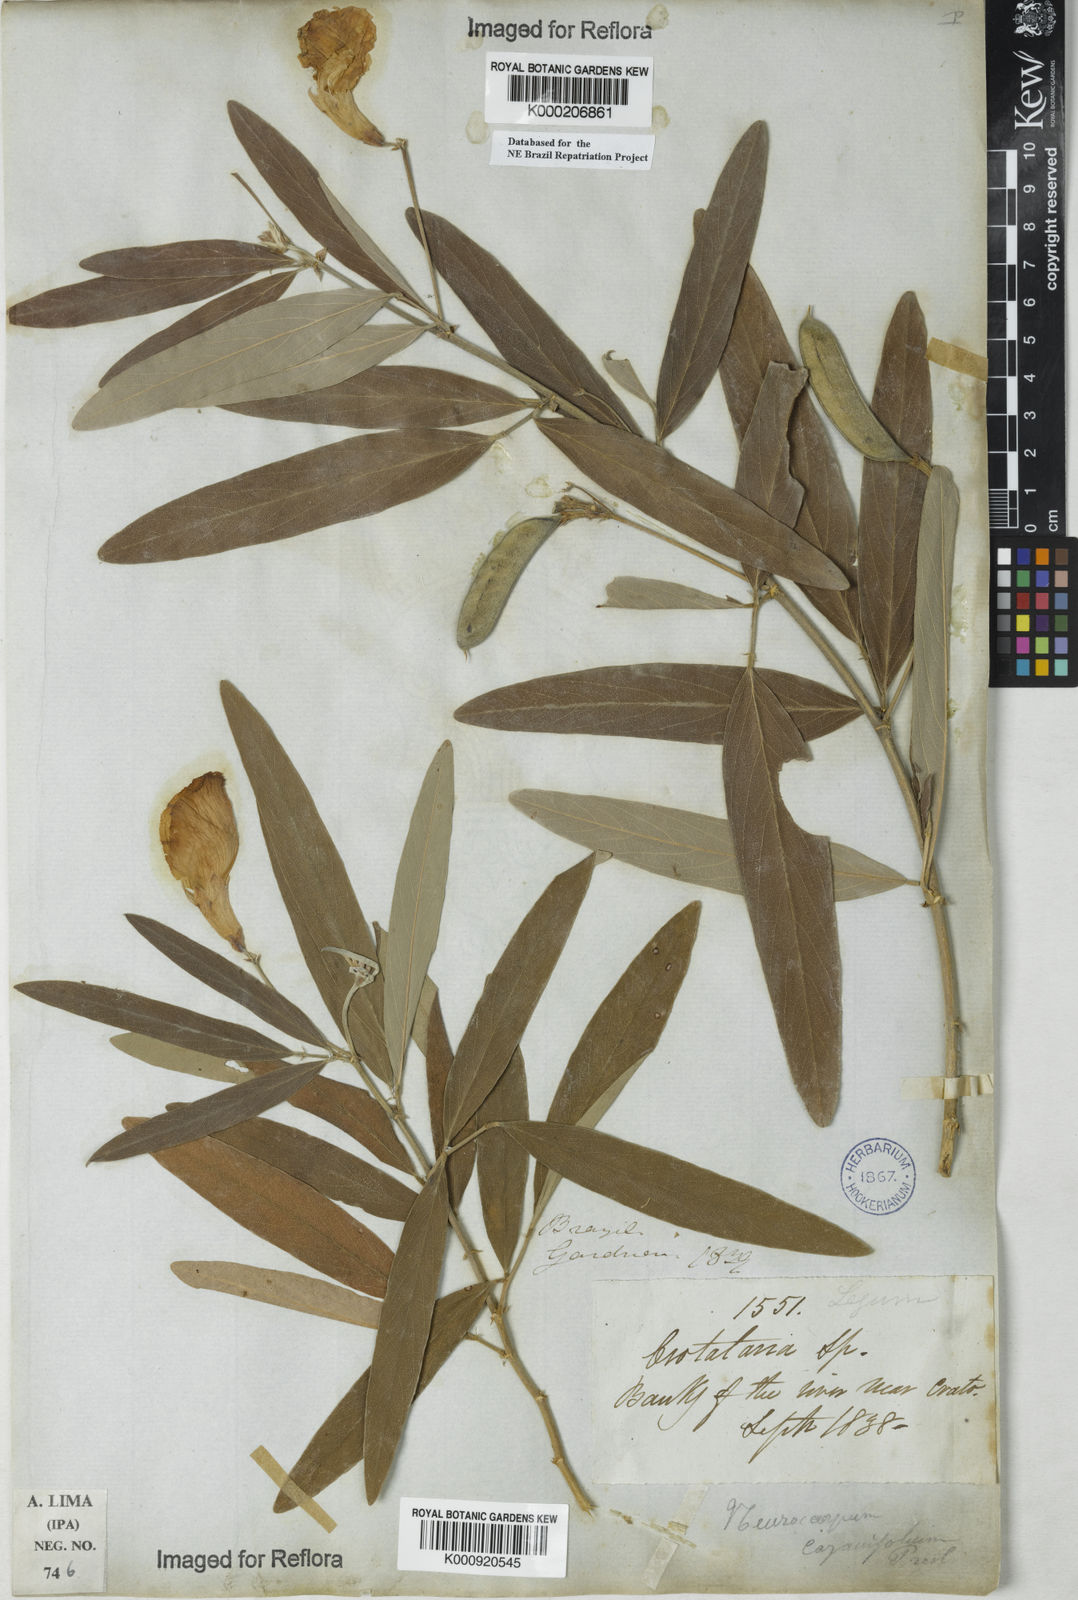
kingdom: Plantae
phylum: Tracheophyta
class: Magnoliopsida
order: Fabales
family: Fabaceae
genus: Clitoria
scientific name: Clitoria laurifolia
